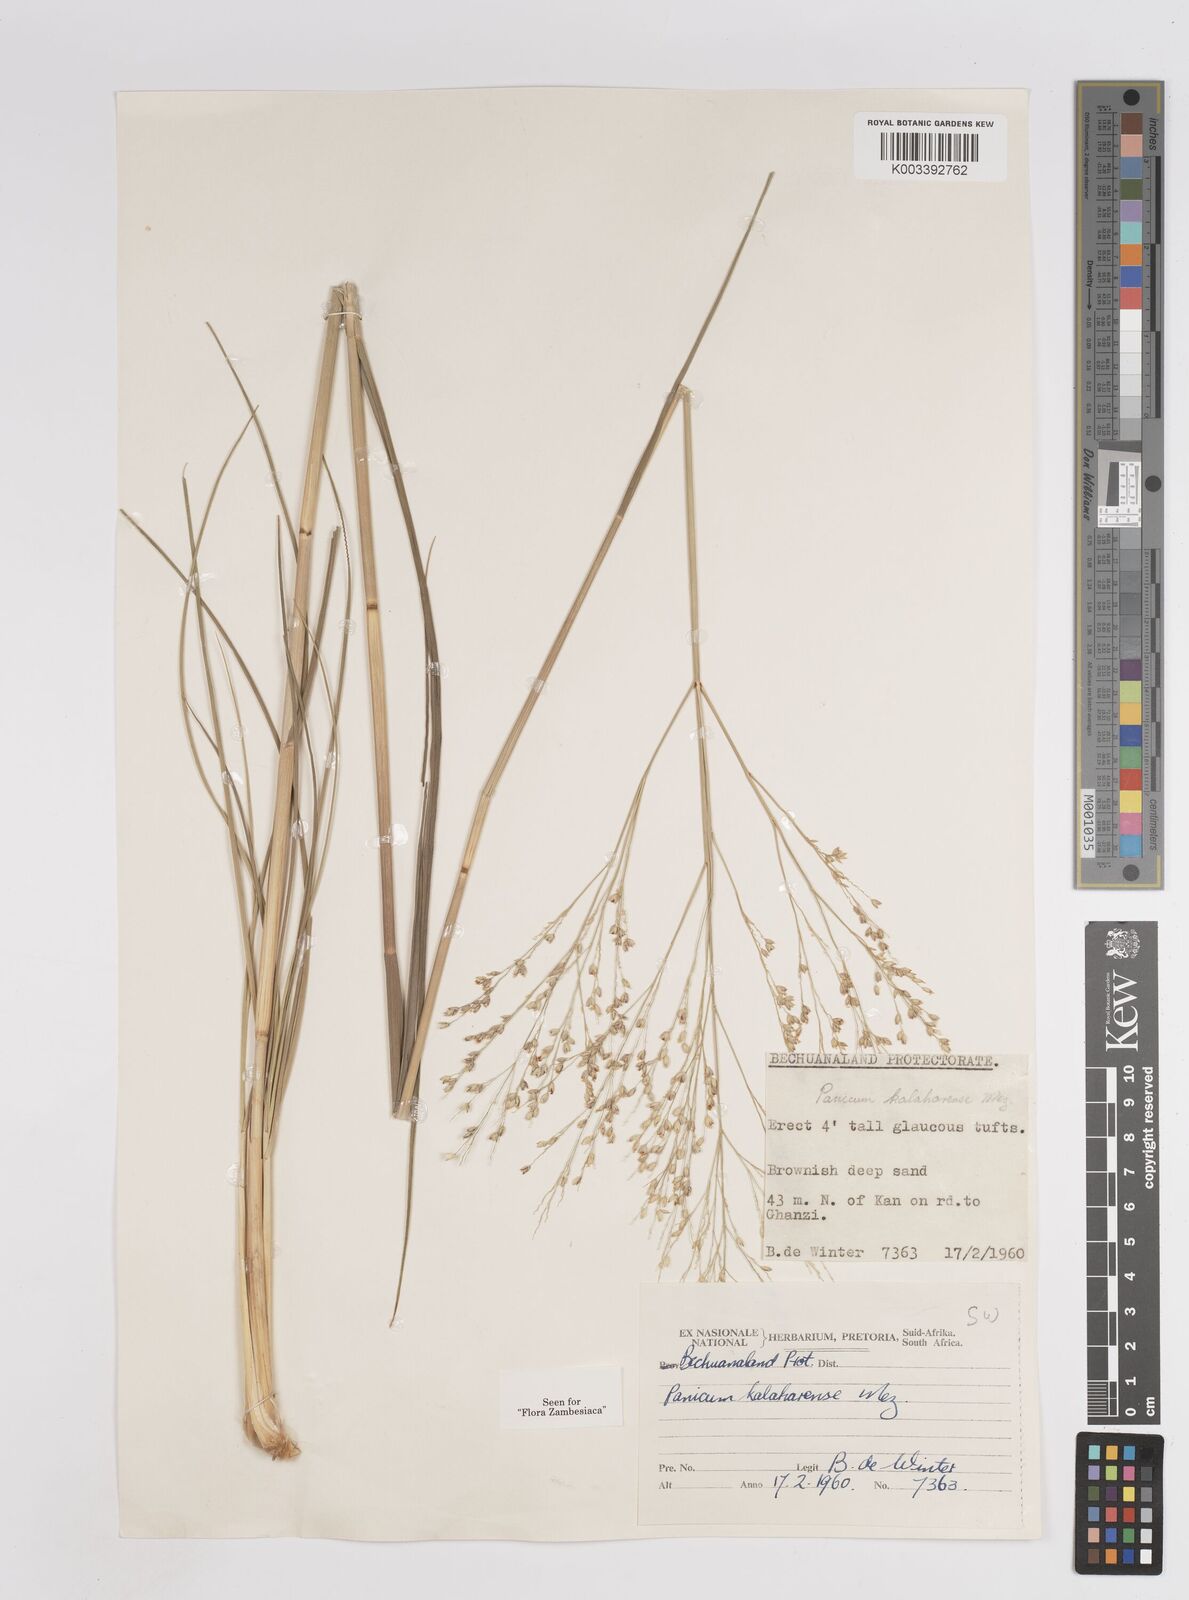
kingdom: Plantae
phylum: Tracheophyta
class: Liliopsida
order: Poales
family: Poaceae
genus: Panicum
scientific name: Panicum kalaharense
